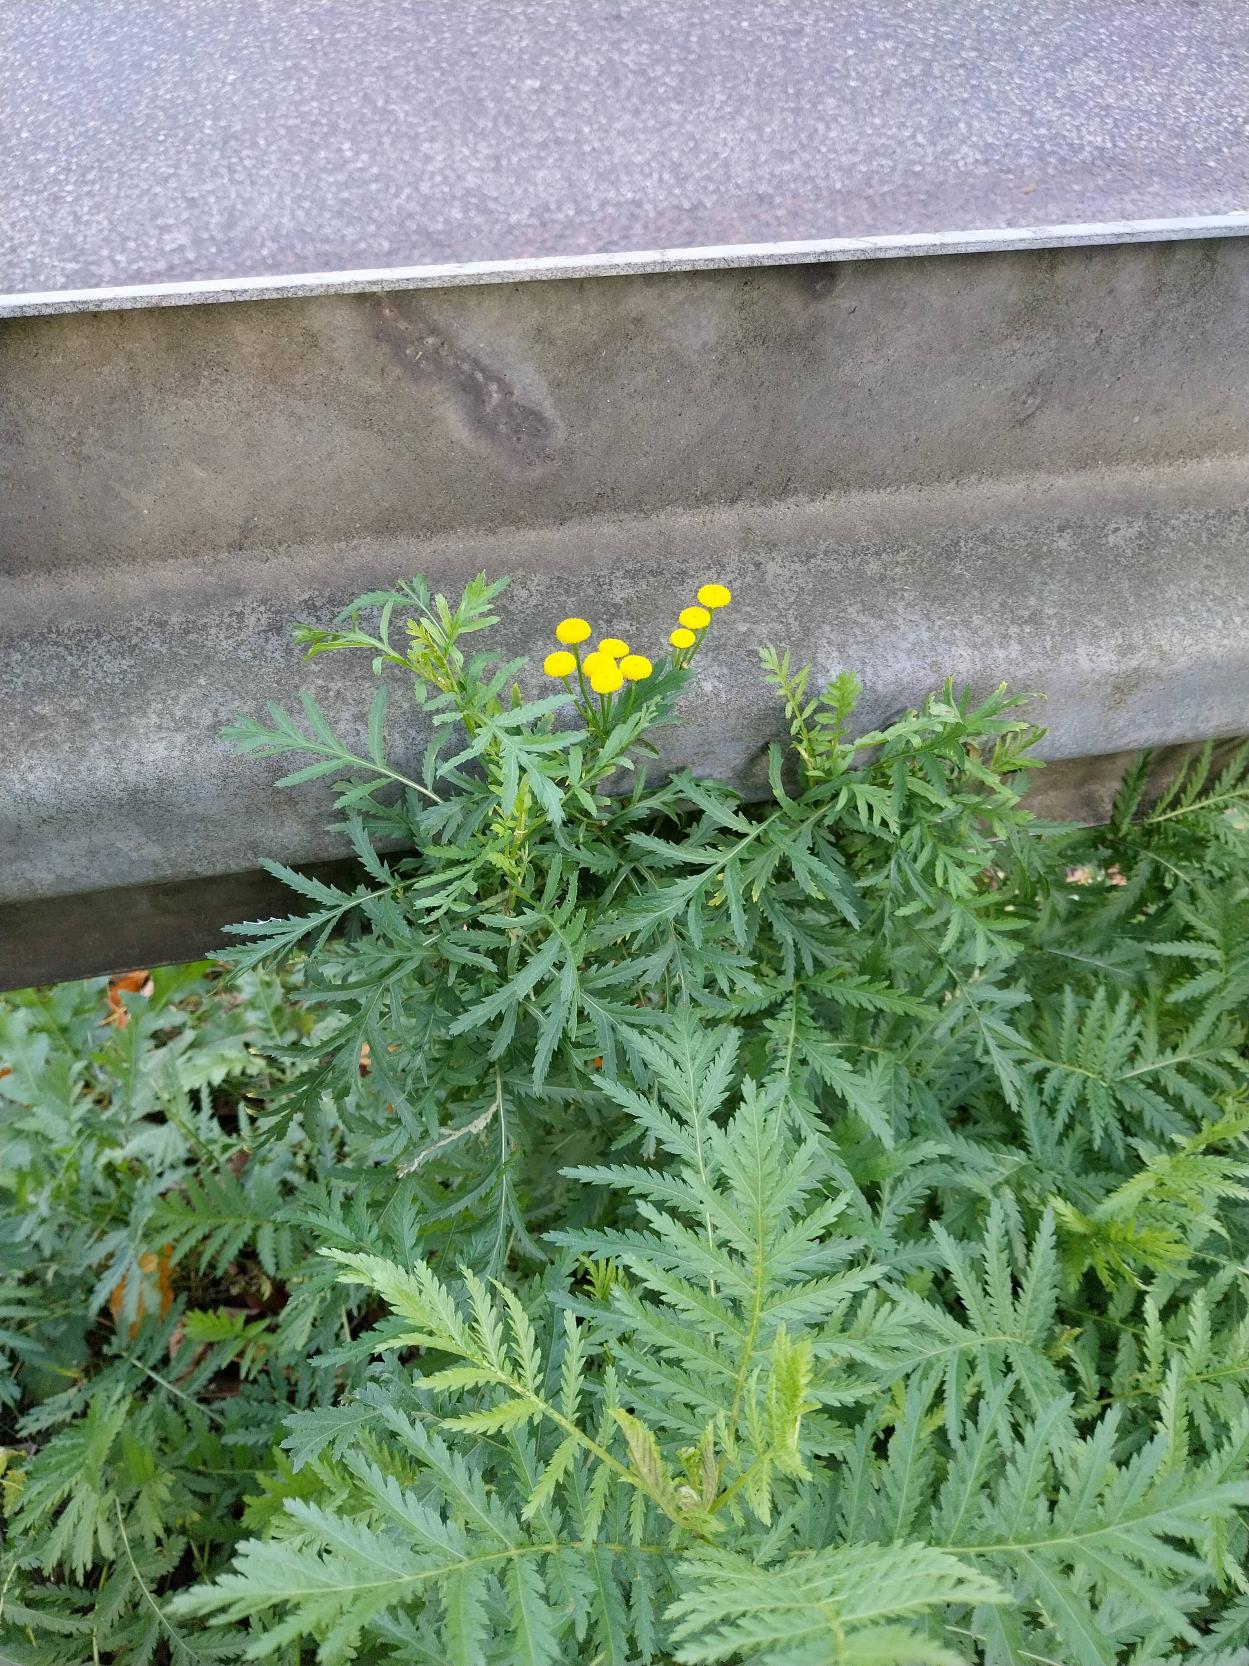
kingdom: Plantae
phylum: Tracheophyta
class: Magnoliopsida
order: Asterales
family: Asteraceae
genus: Tanacetum
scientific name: Tanacetum vulgare
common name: Rejnfan
